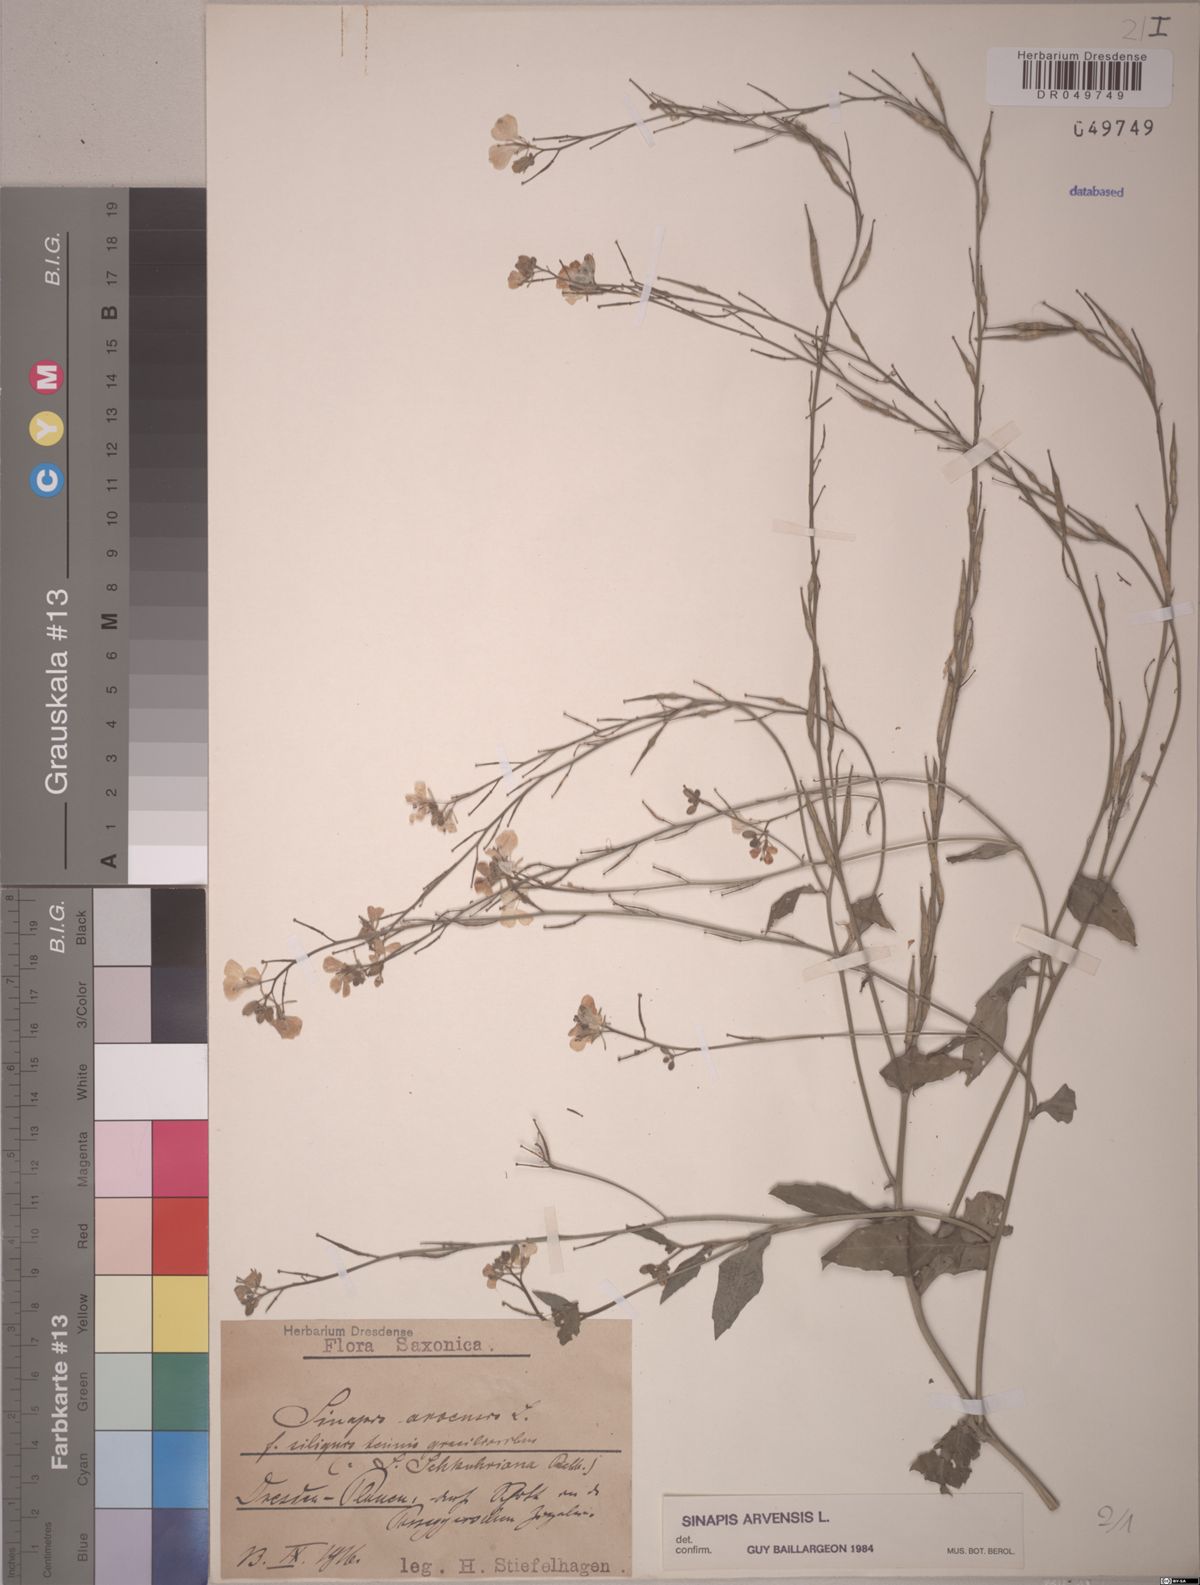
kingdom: Plantae
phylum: Tracheophyta
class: Magnoliopsida
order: Brassicales
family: Brassicaceae
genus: Sinapis
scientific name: Sinapis arvensis
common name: Charlock
